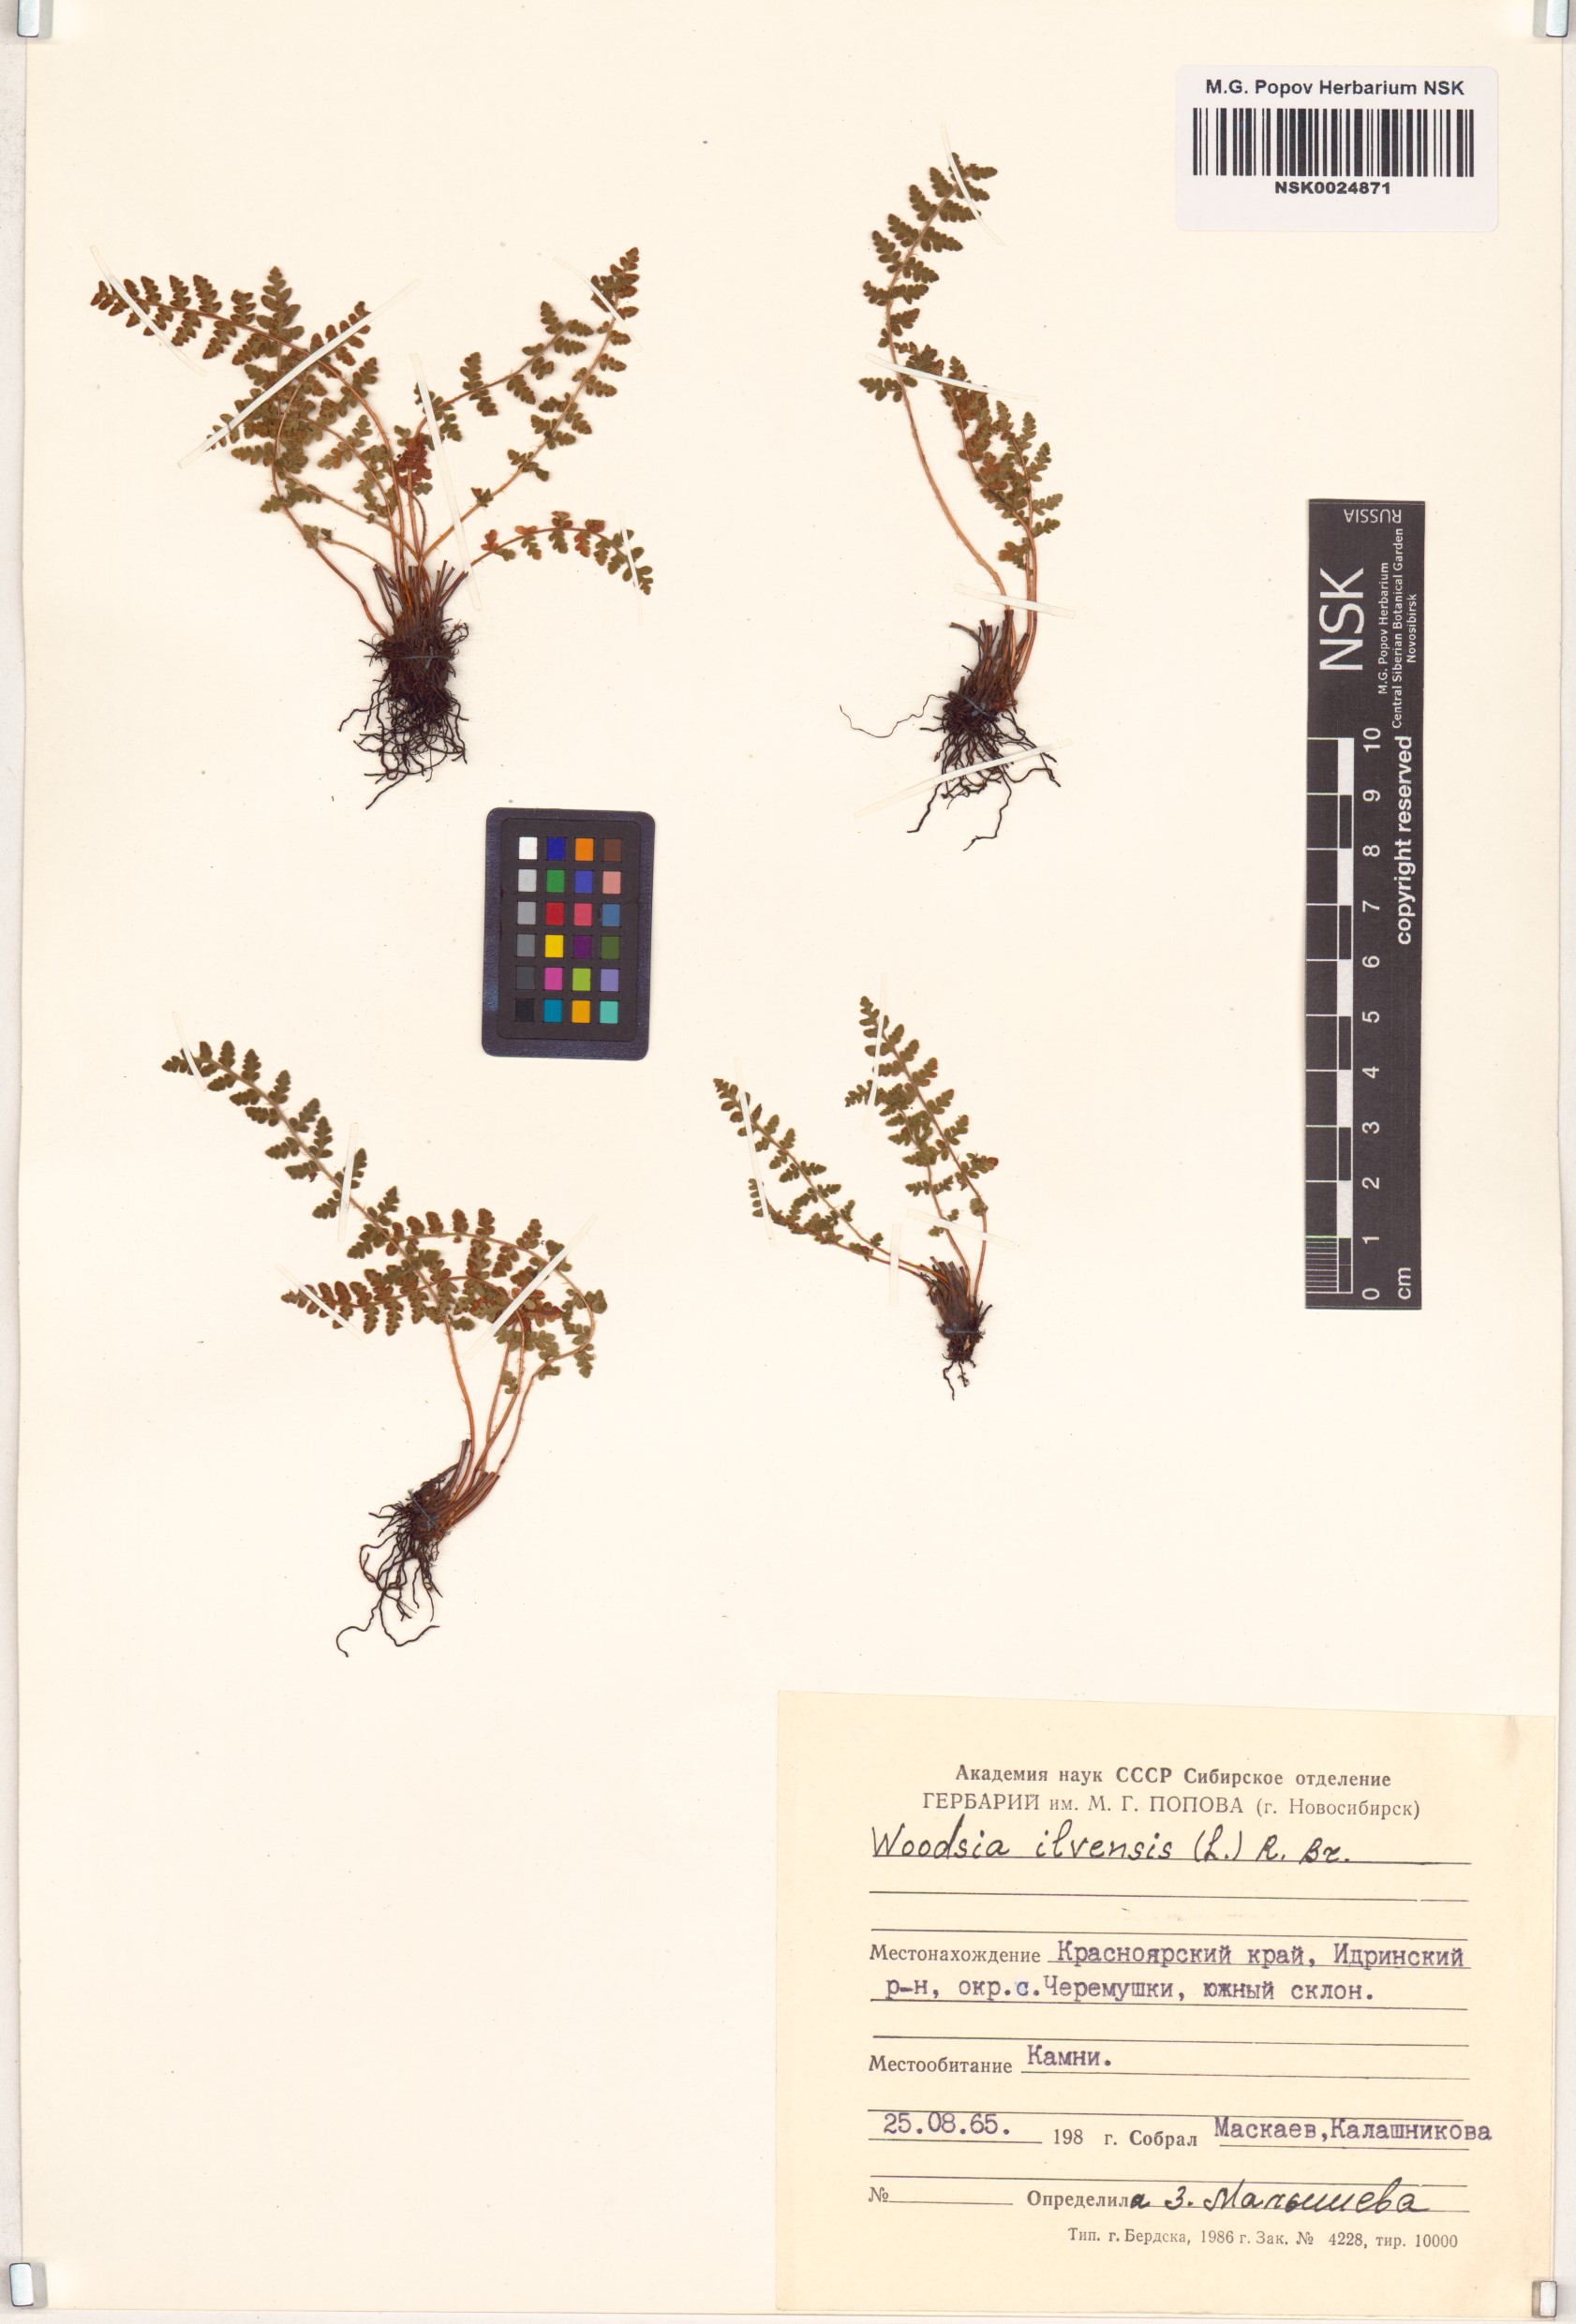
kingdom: Plantae
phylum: Tracheophyta
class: Polypodiopsida
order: Polypodiales
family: Woodsiaceae
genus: Woodsia
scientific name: Woodsia ilvensis
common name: Fragrant woodsia
